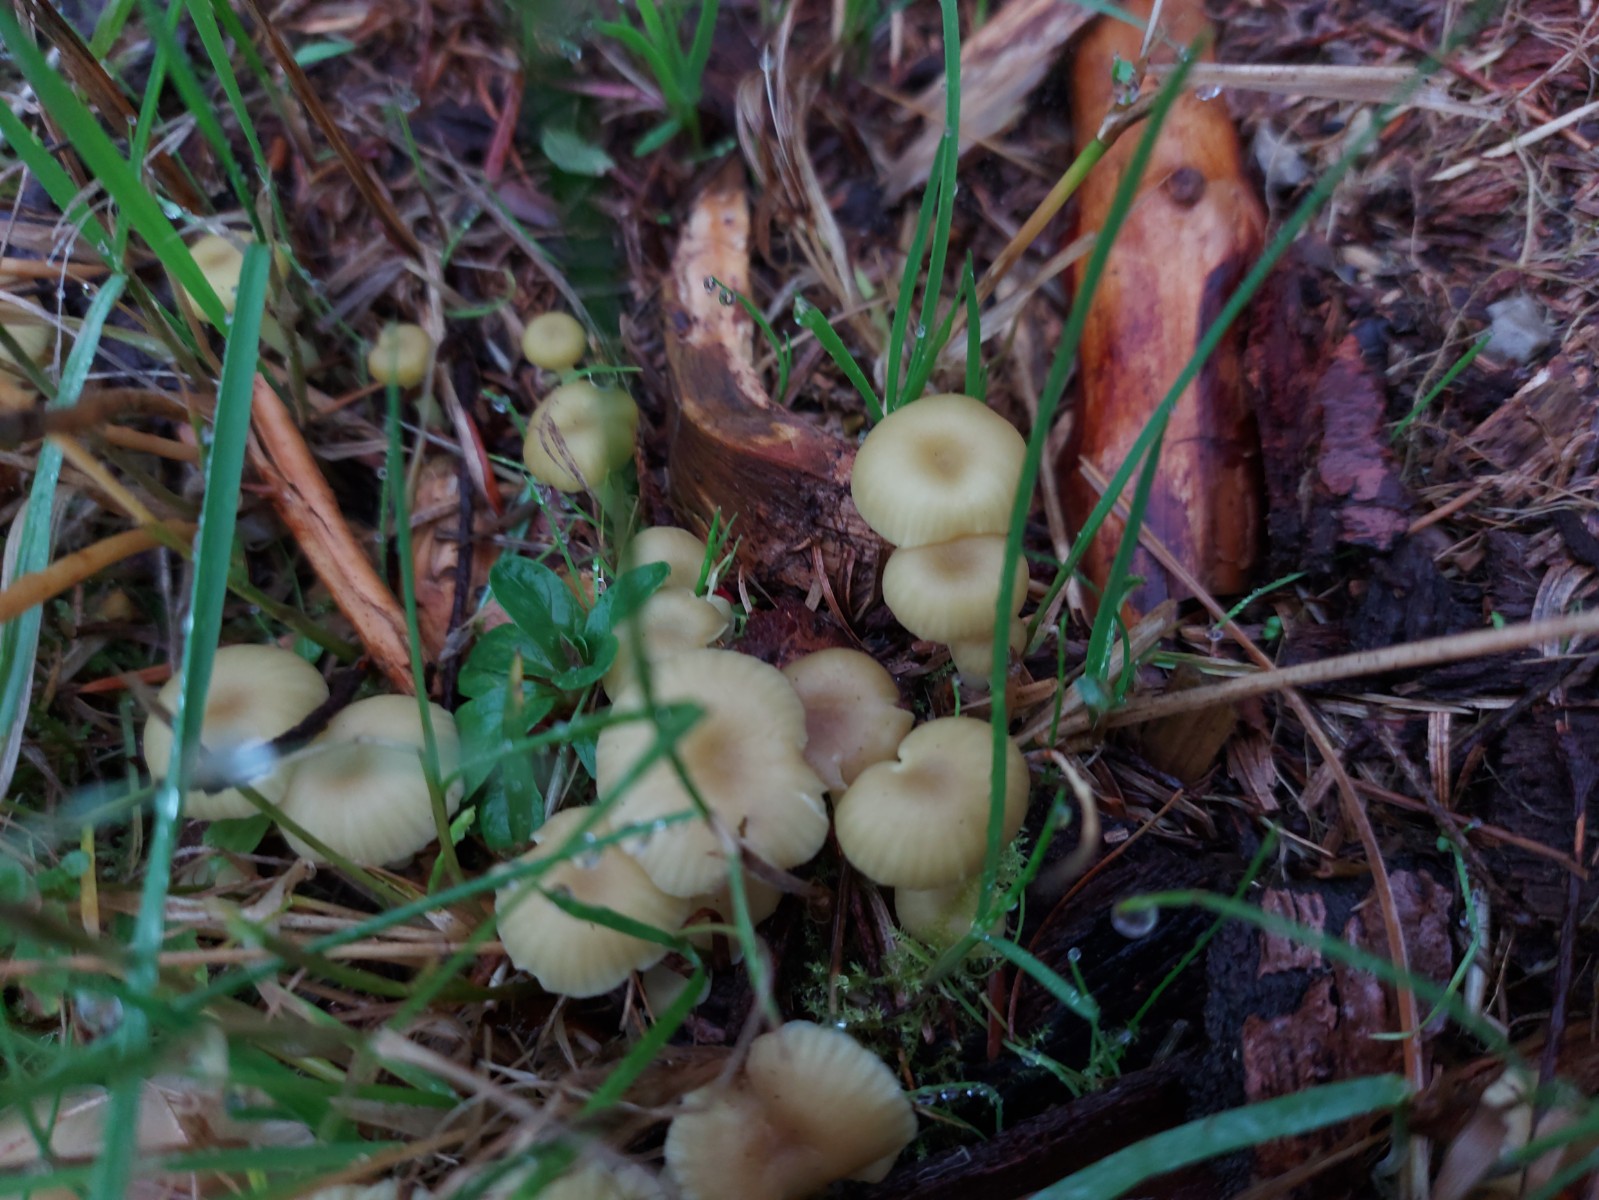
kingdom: Fungi
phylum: Basidiomycota
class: Agaricomycetes
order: Agaricales
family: Hygrophoraceae
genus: Chrysomphalina
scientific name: Chrysomphalina grossula
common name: stød-gyldenblad
